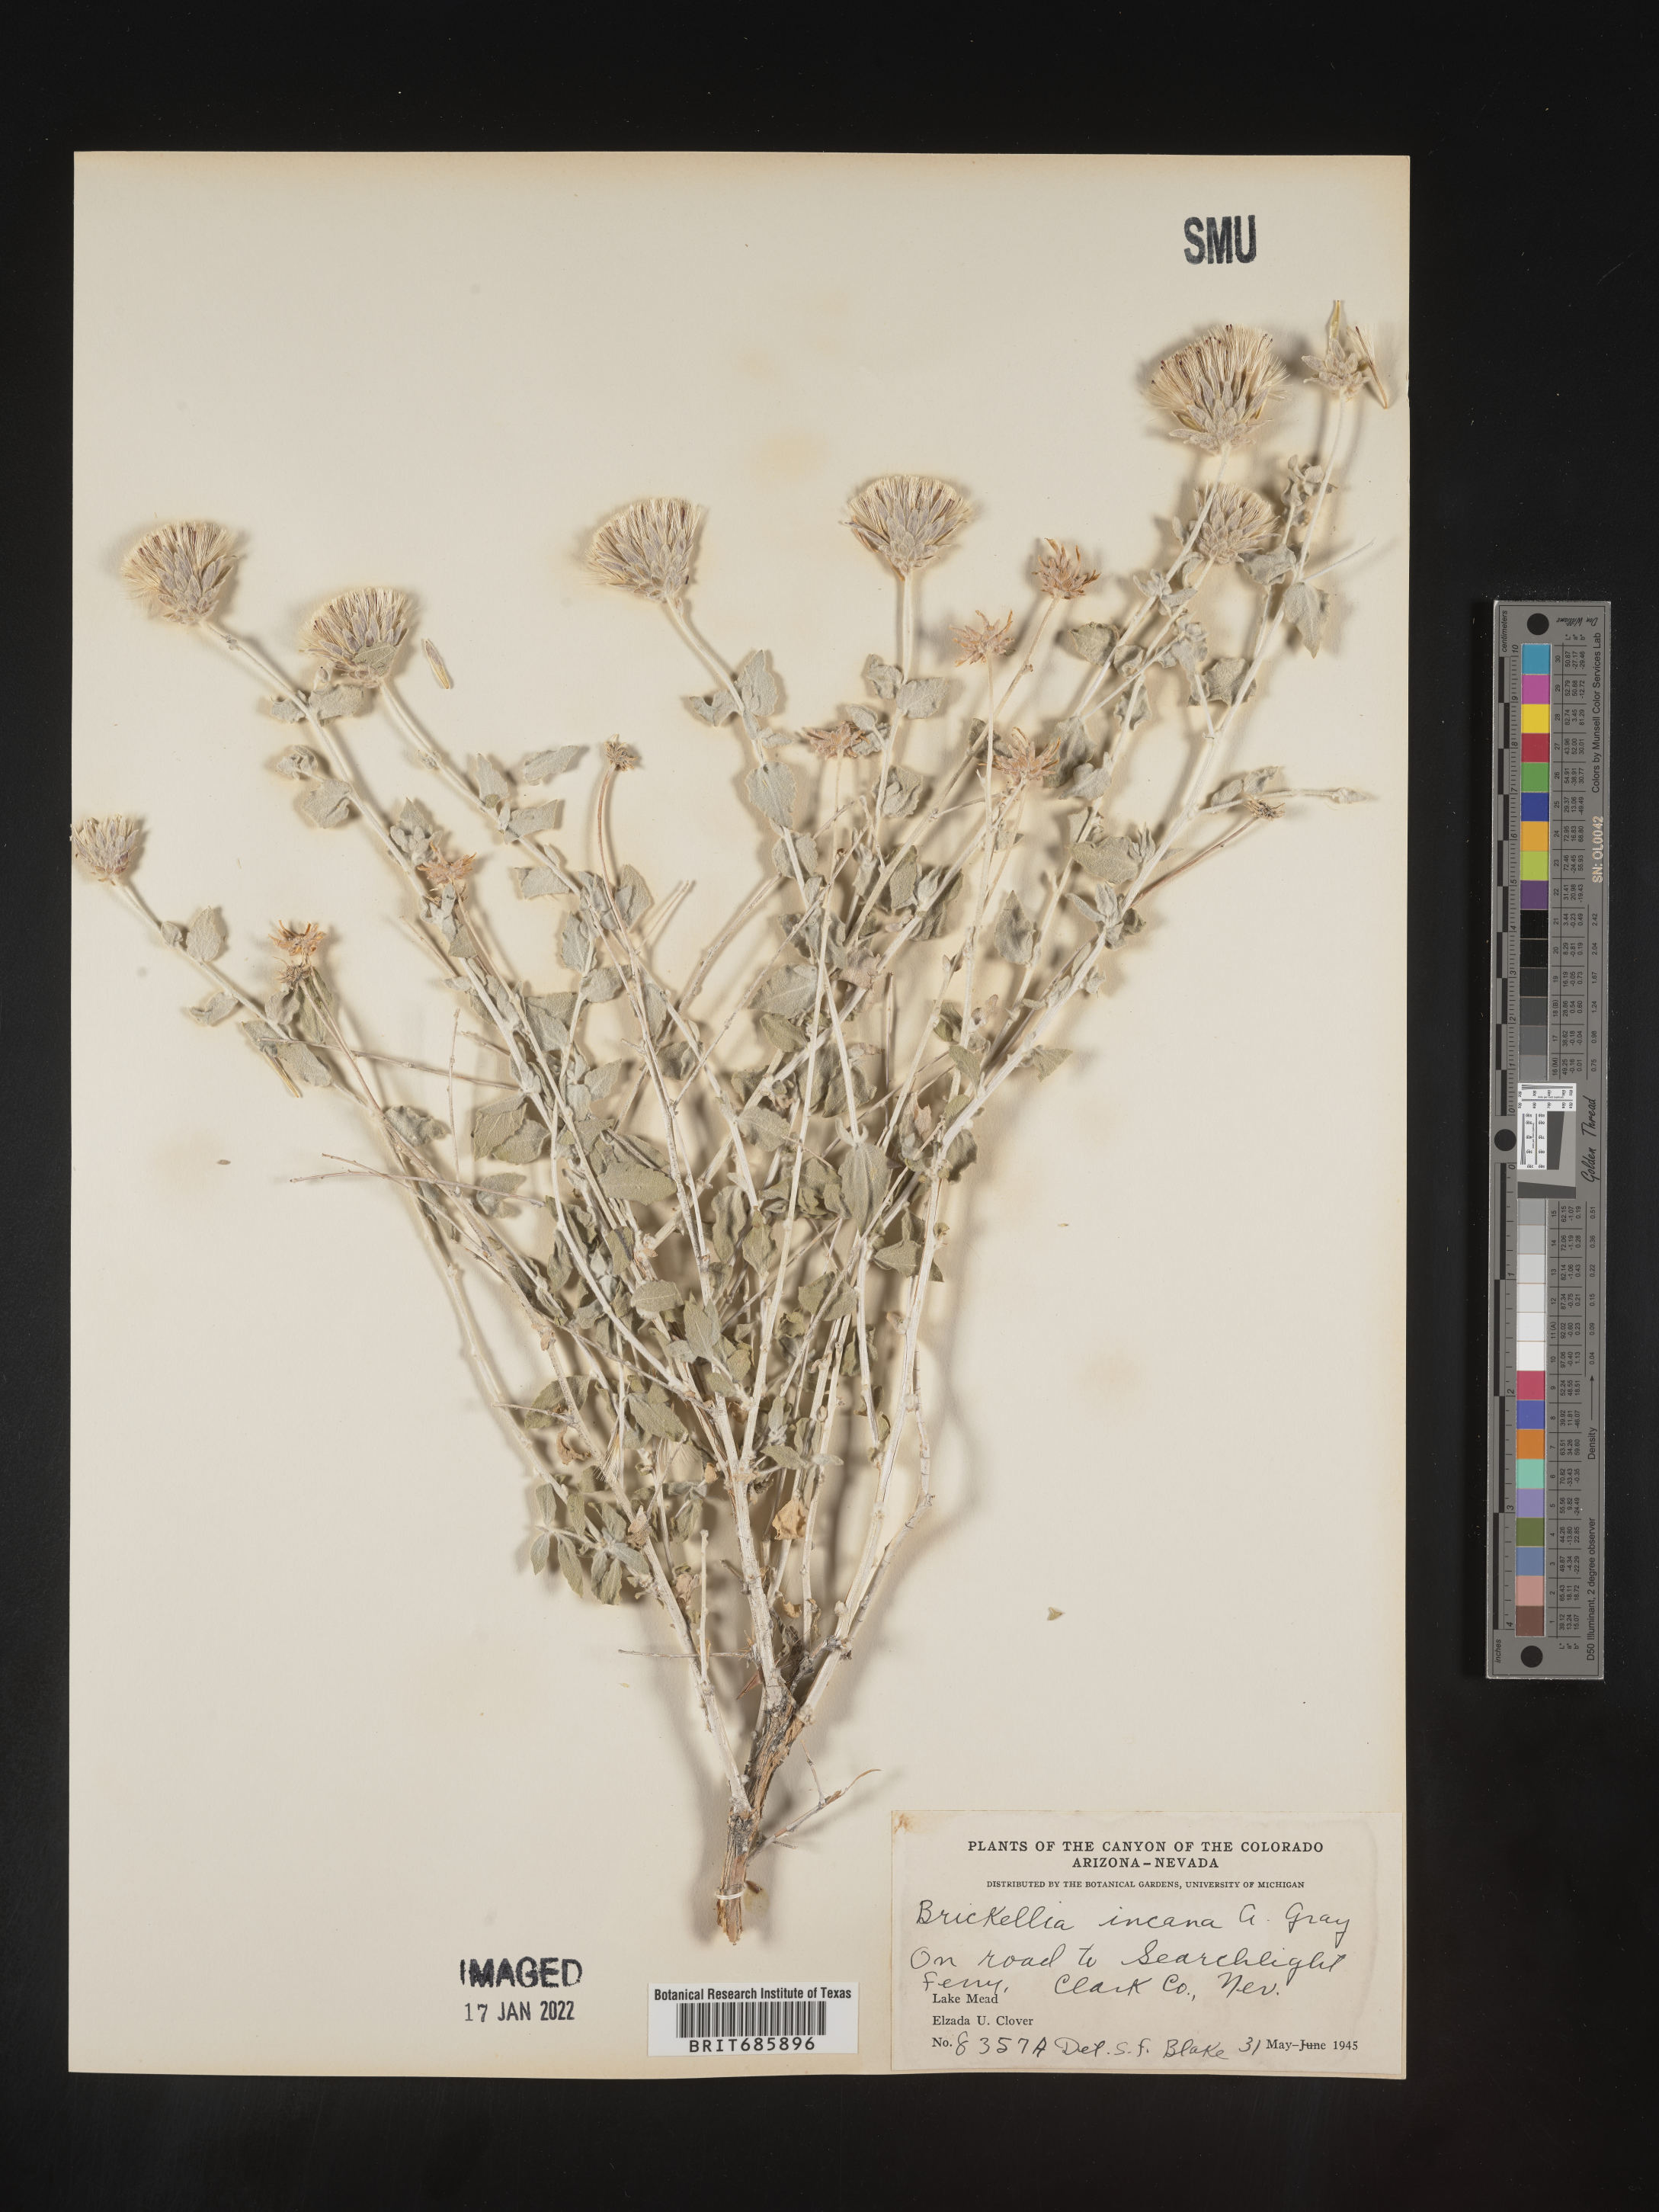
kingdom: Plantae
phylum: Tracheophyta
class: Magnoliopsida
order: Asterales
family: Asteraceae
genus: Brickellia
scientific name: Brickellia incana
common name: Woolly brickelbush
